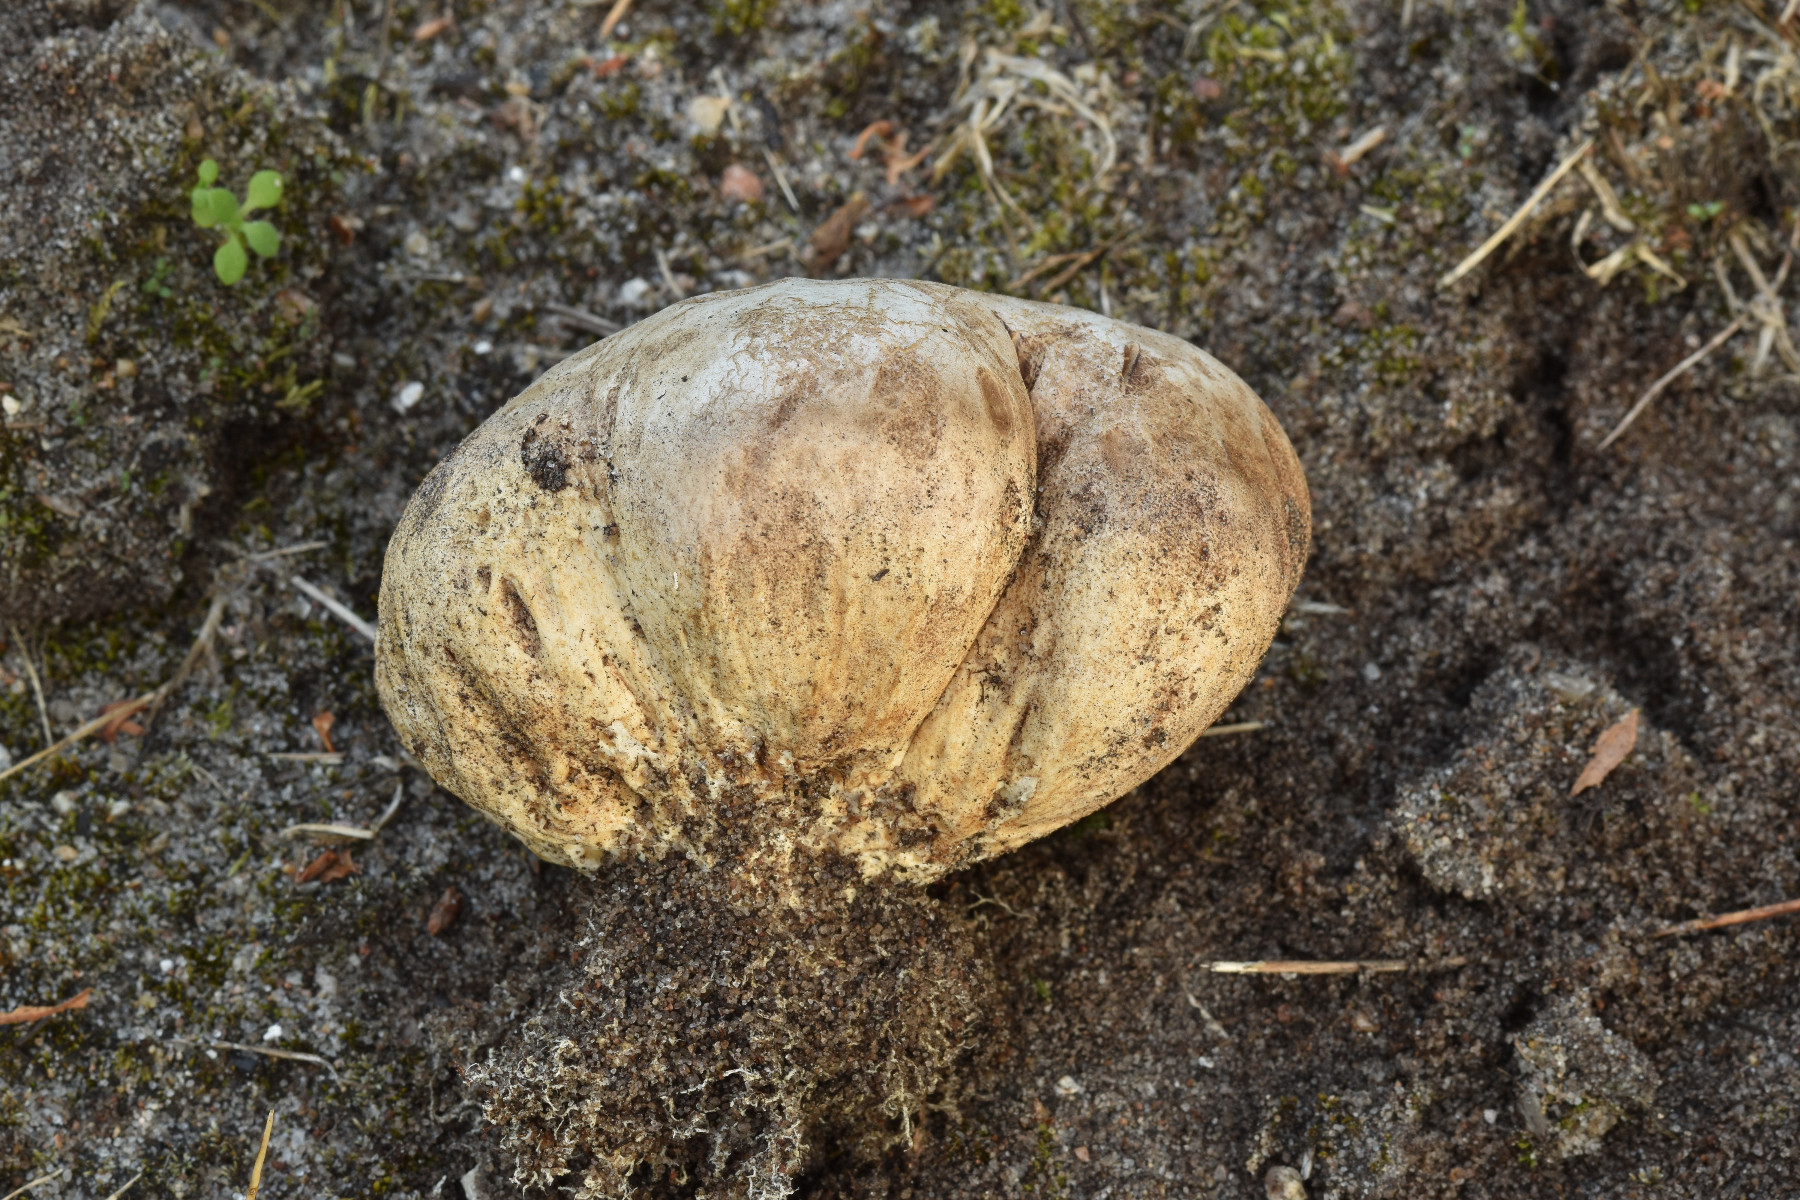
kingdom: Fungi
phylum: Basidiomycota
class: Agaricomycetes
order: Boletales
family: Sclerodermataceae
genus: Scleroderma
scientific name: Scleroderma septentrionale
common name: sand-bruskbold
